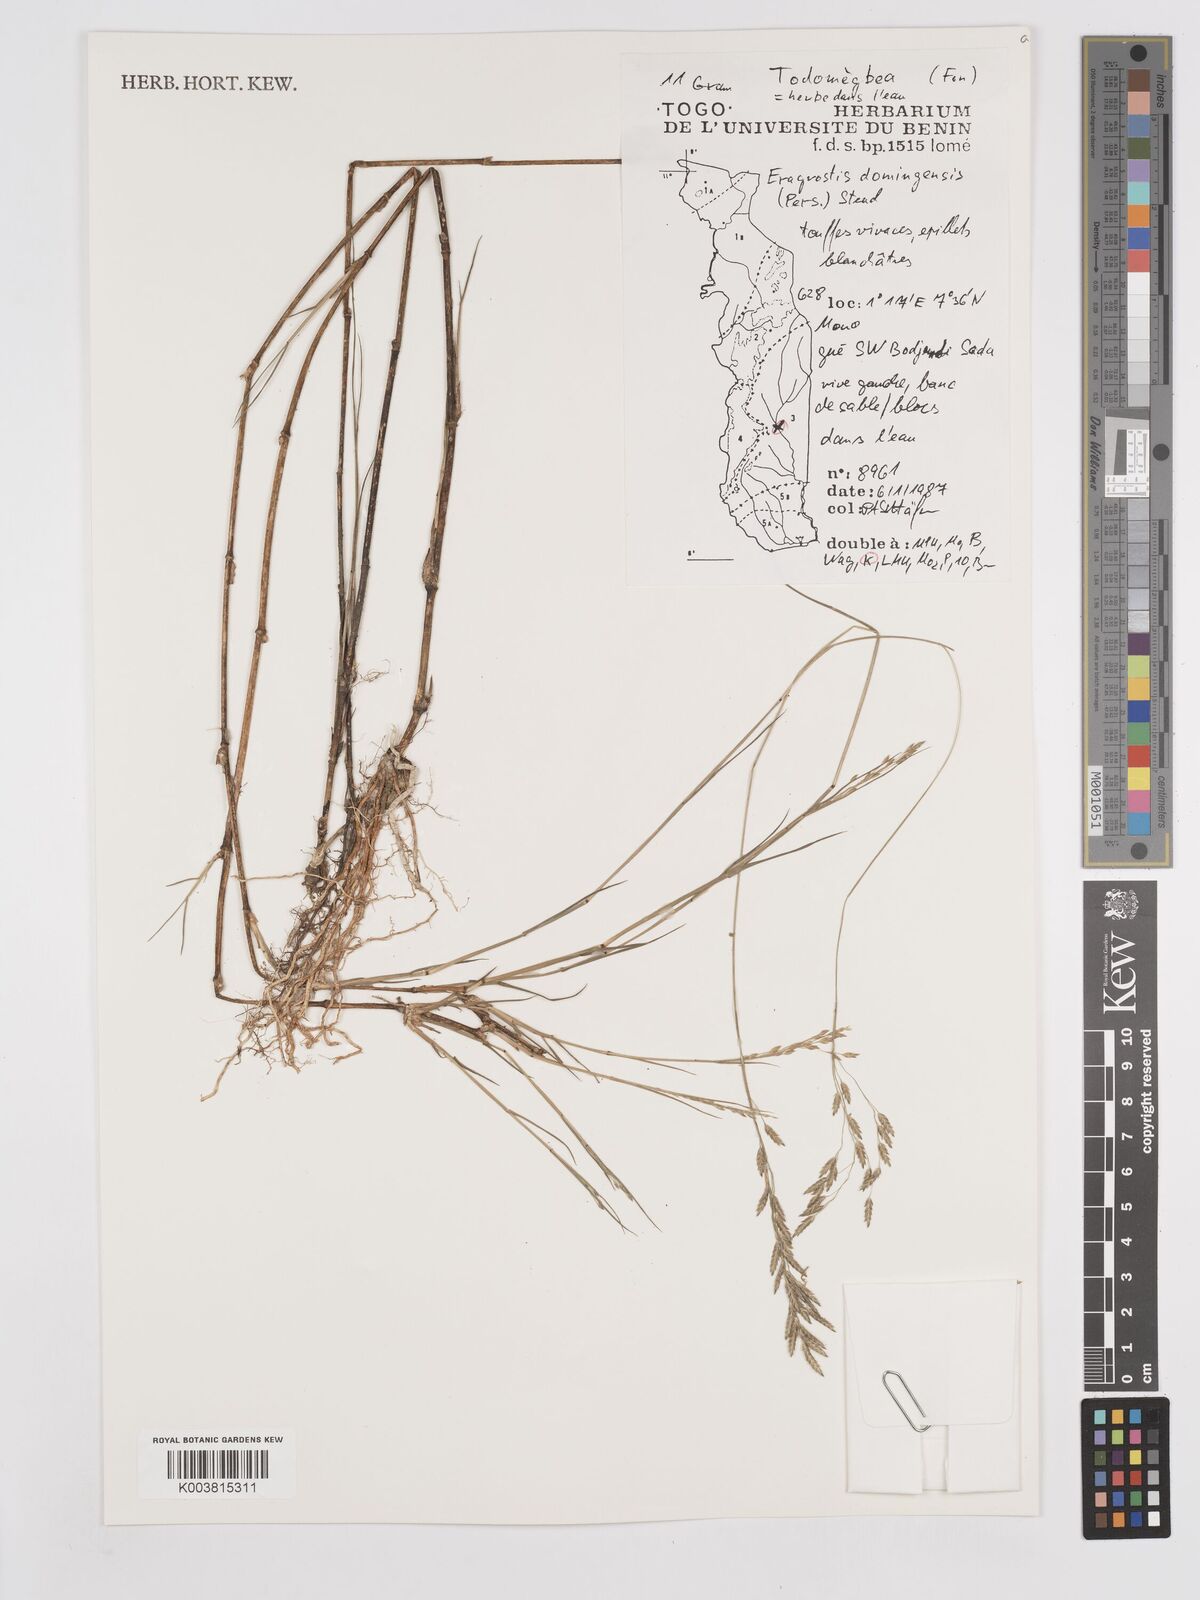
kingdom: Plantae
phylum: Tracheophyta
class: Liliopsida
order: Poales
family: Poaceae
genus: Eragrostis
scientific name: Eragrostis prolifera
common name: Dominican lovegrass
